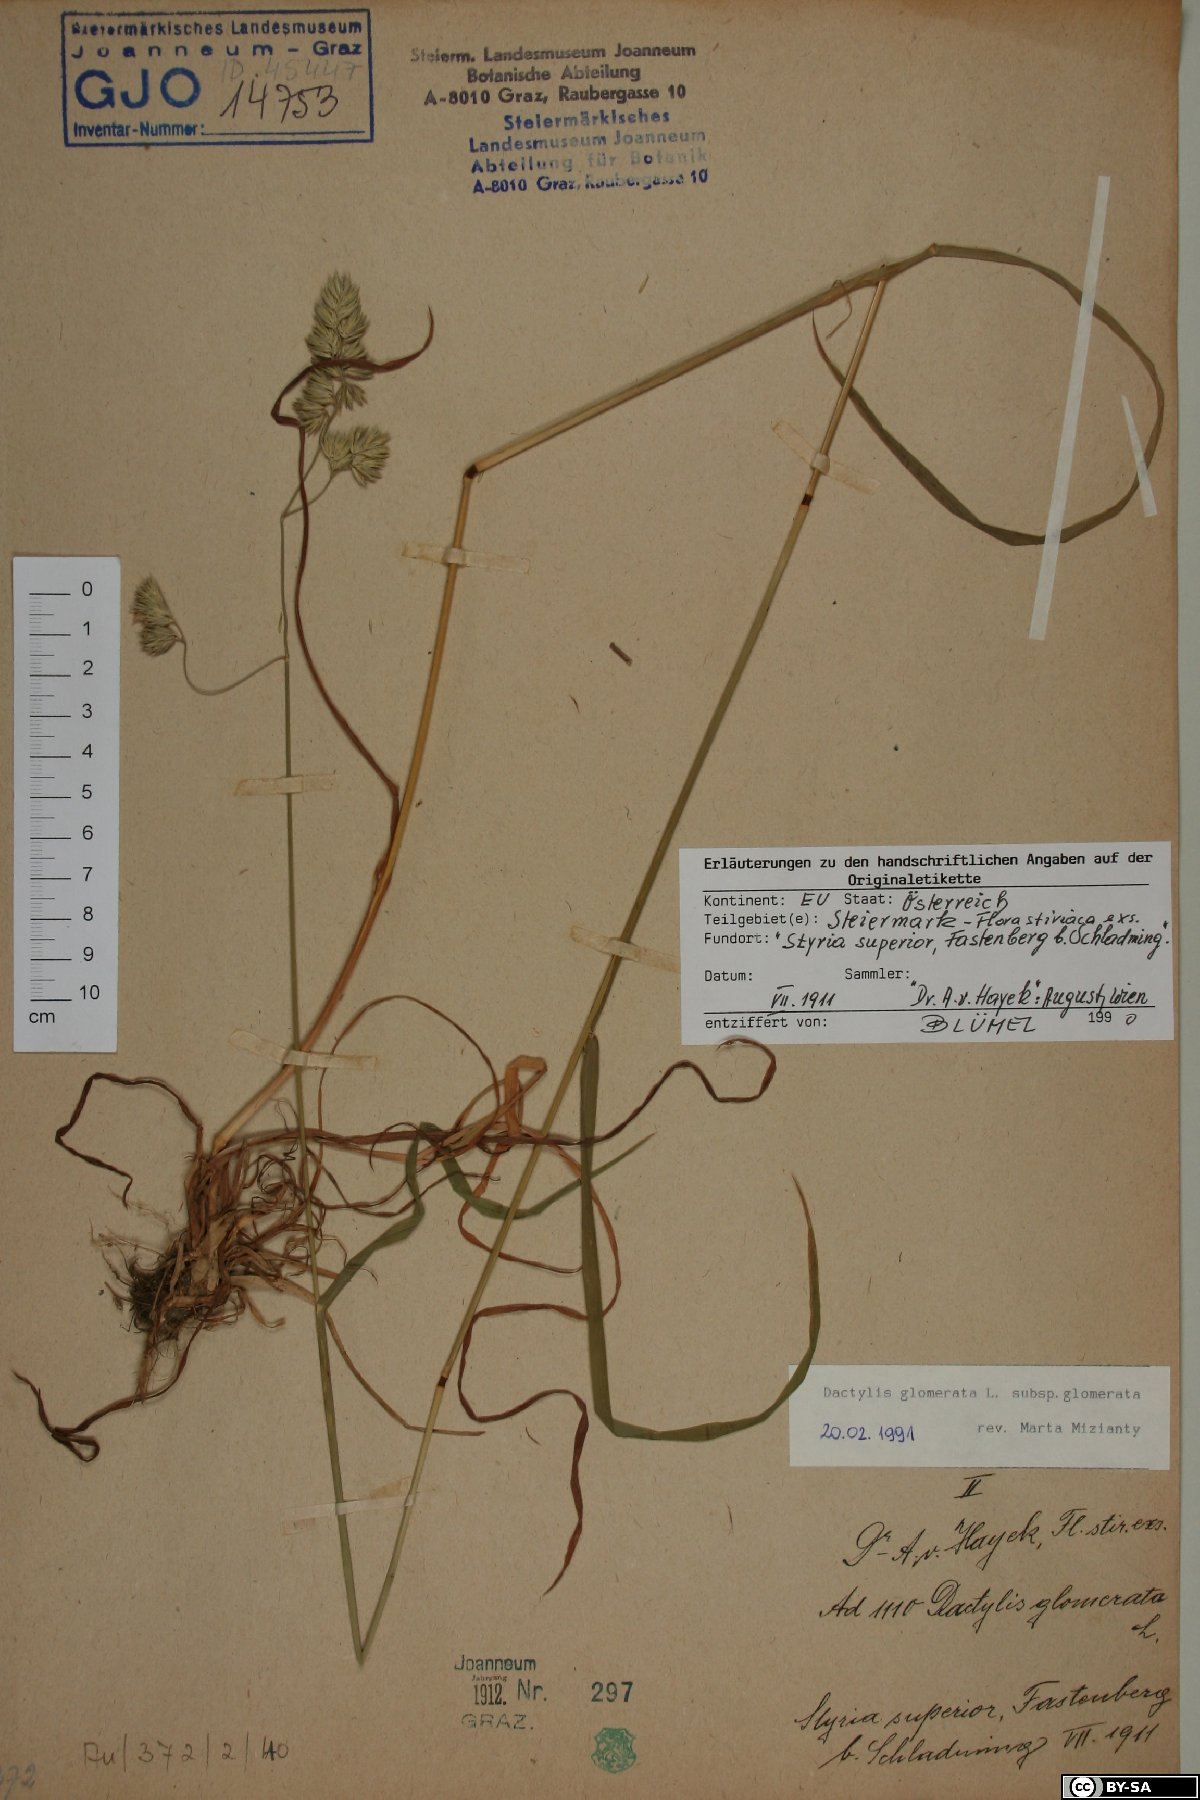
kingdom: Plantae
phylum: Tracheophyta
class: Liliopsida
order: Poales
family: Poaceae
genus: Dactylis
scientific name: Dactylis glomerata
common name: Orchardgrass
